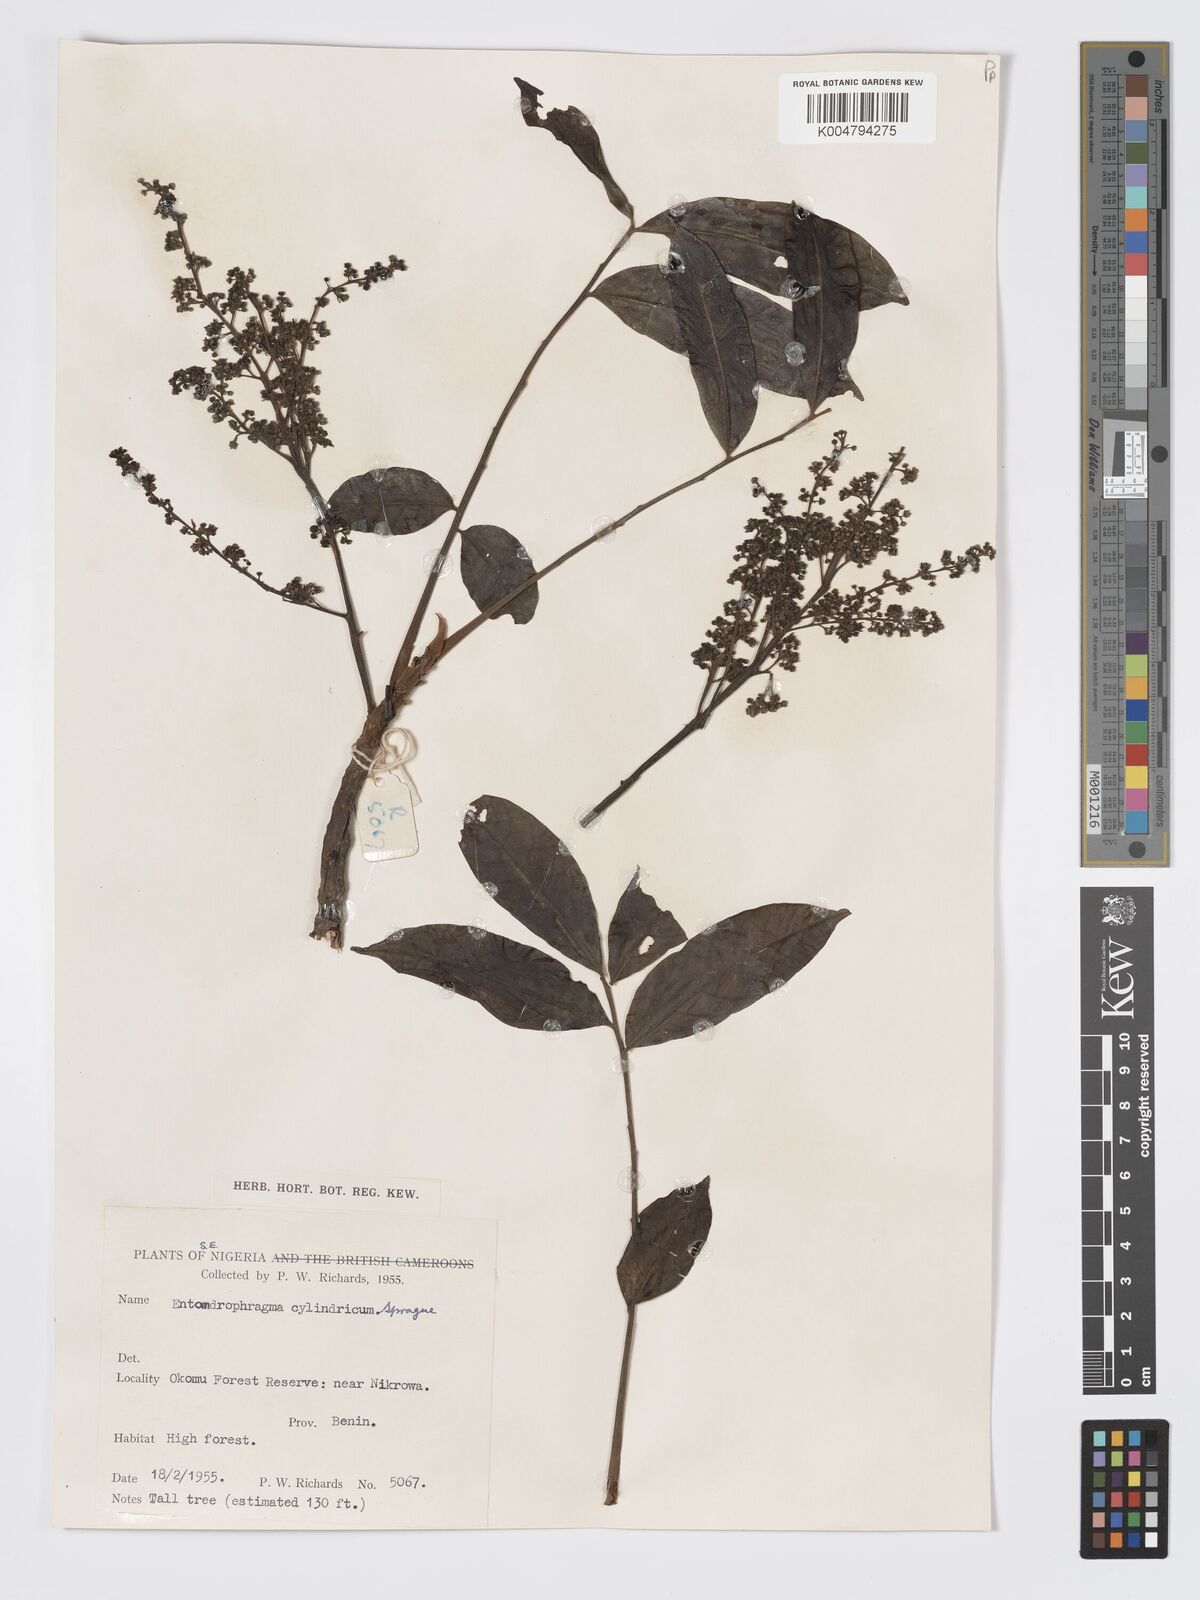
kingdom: Plantae
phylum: Tracheophyta
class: Magnoliopsida
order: Sapindales
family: Meliaceae
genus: Entandrophragma
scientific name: Entandrophragma cylindricum
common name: Sapele
